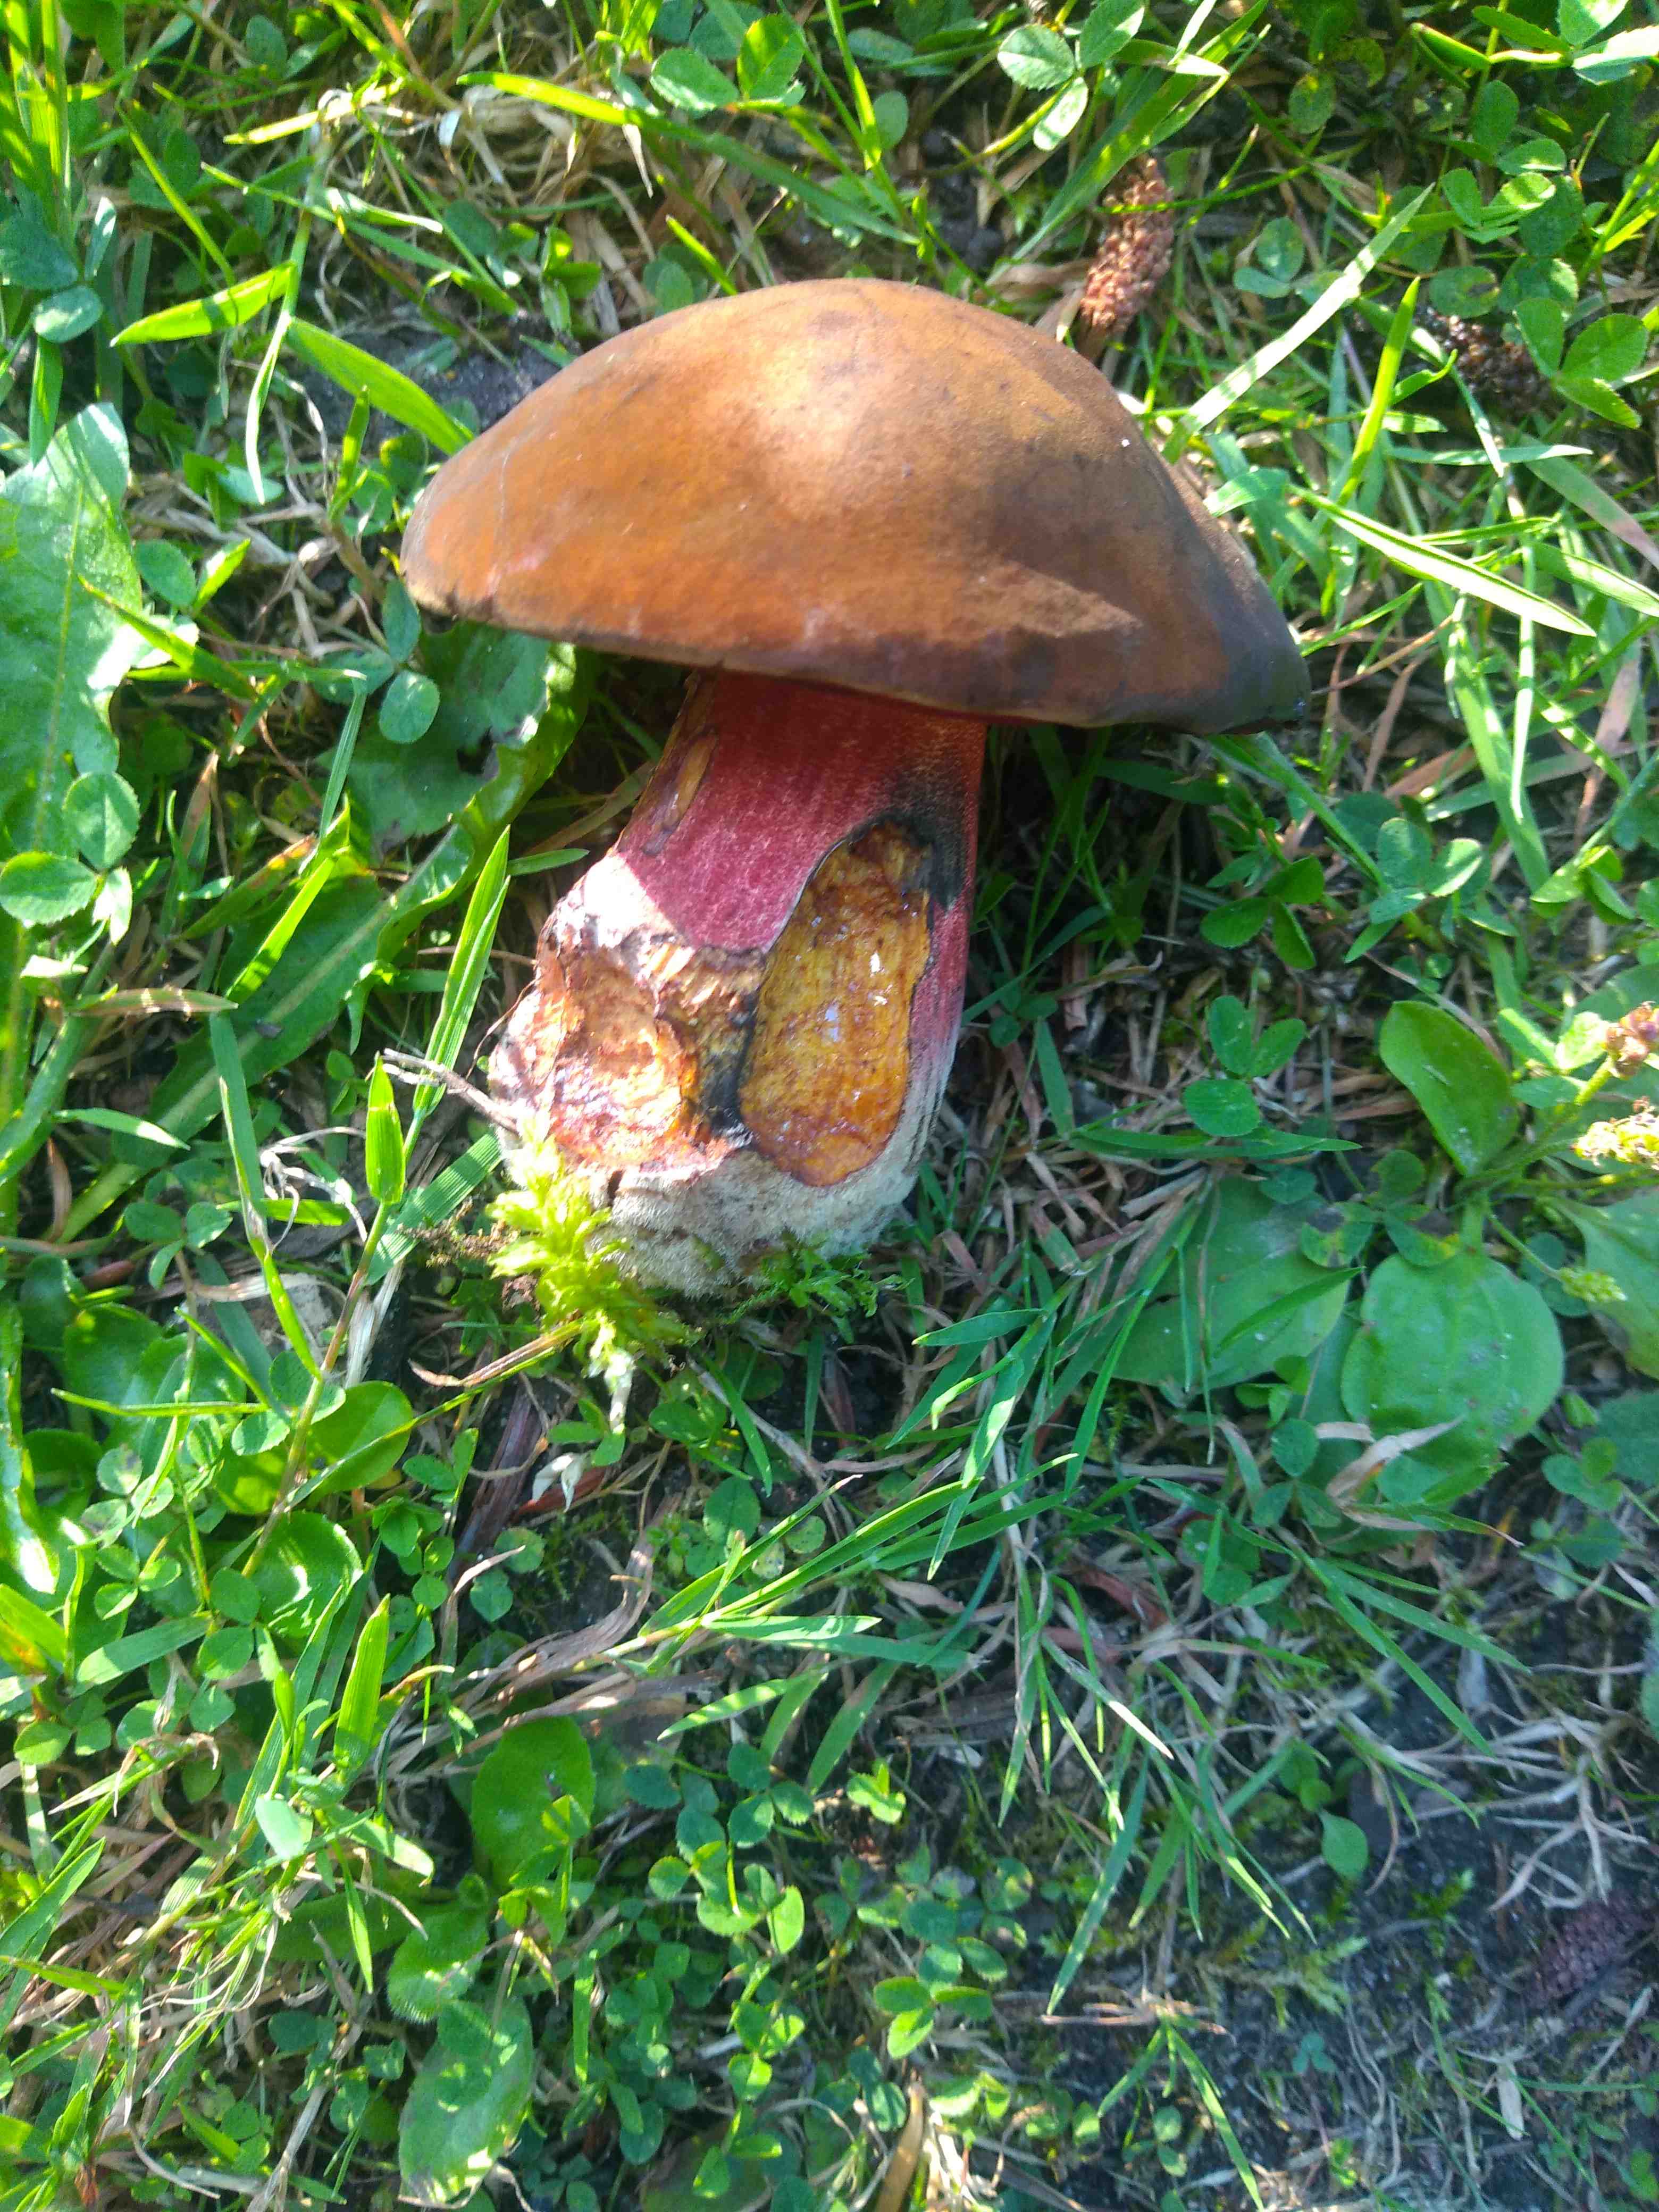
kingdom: Fungi
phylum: Basidiomycota
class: Agaricomycetes
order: Boletales
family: Boletaceae
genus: Neoboletus
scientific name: Neoboletus erythropus
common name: punktstokket indigorørhat
